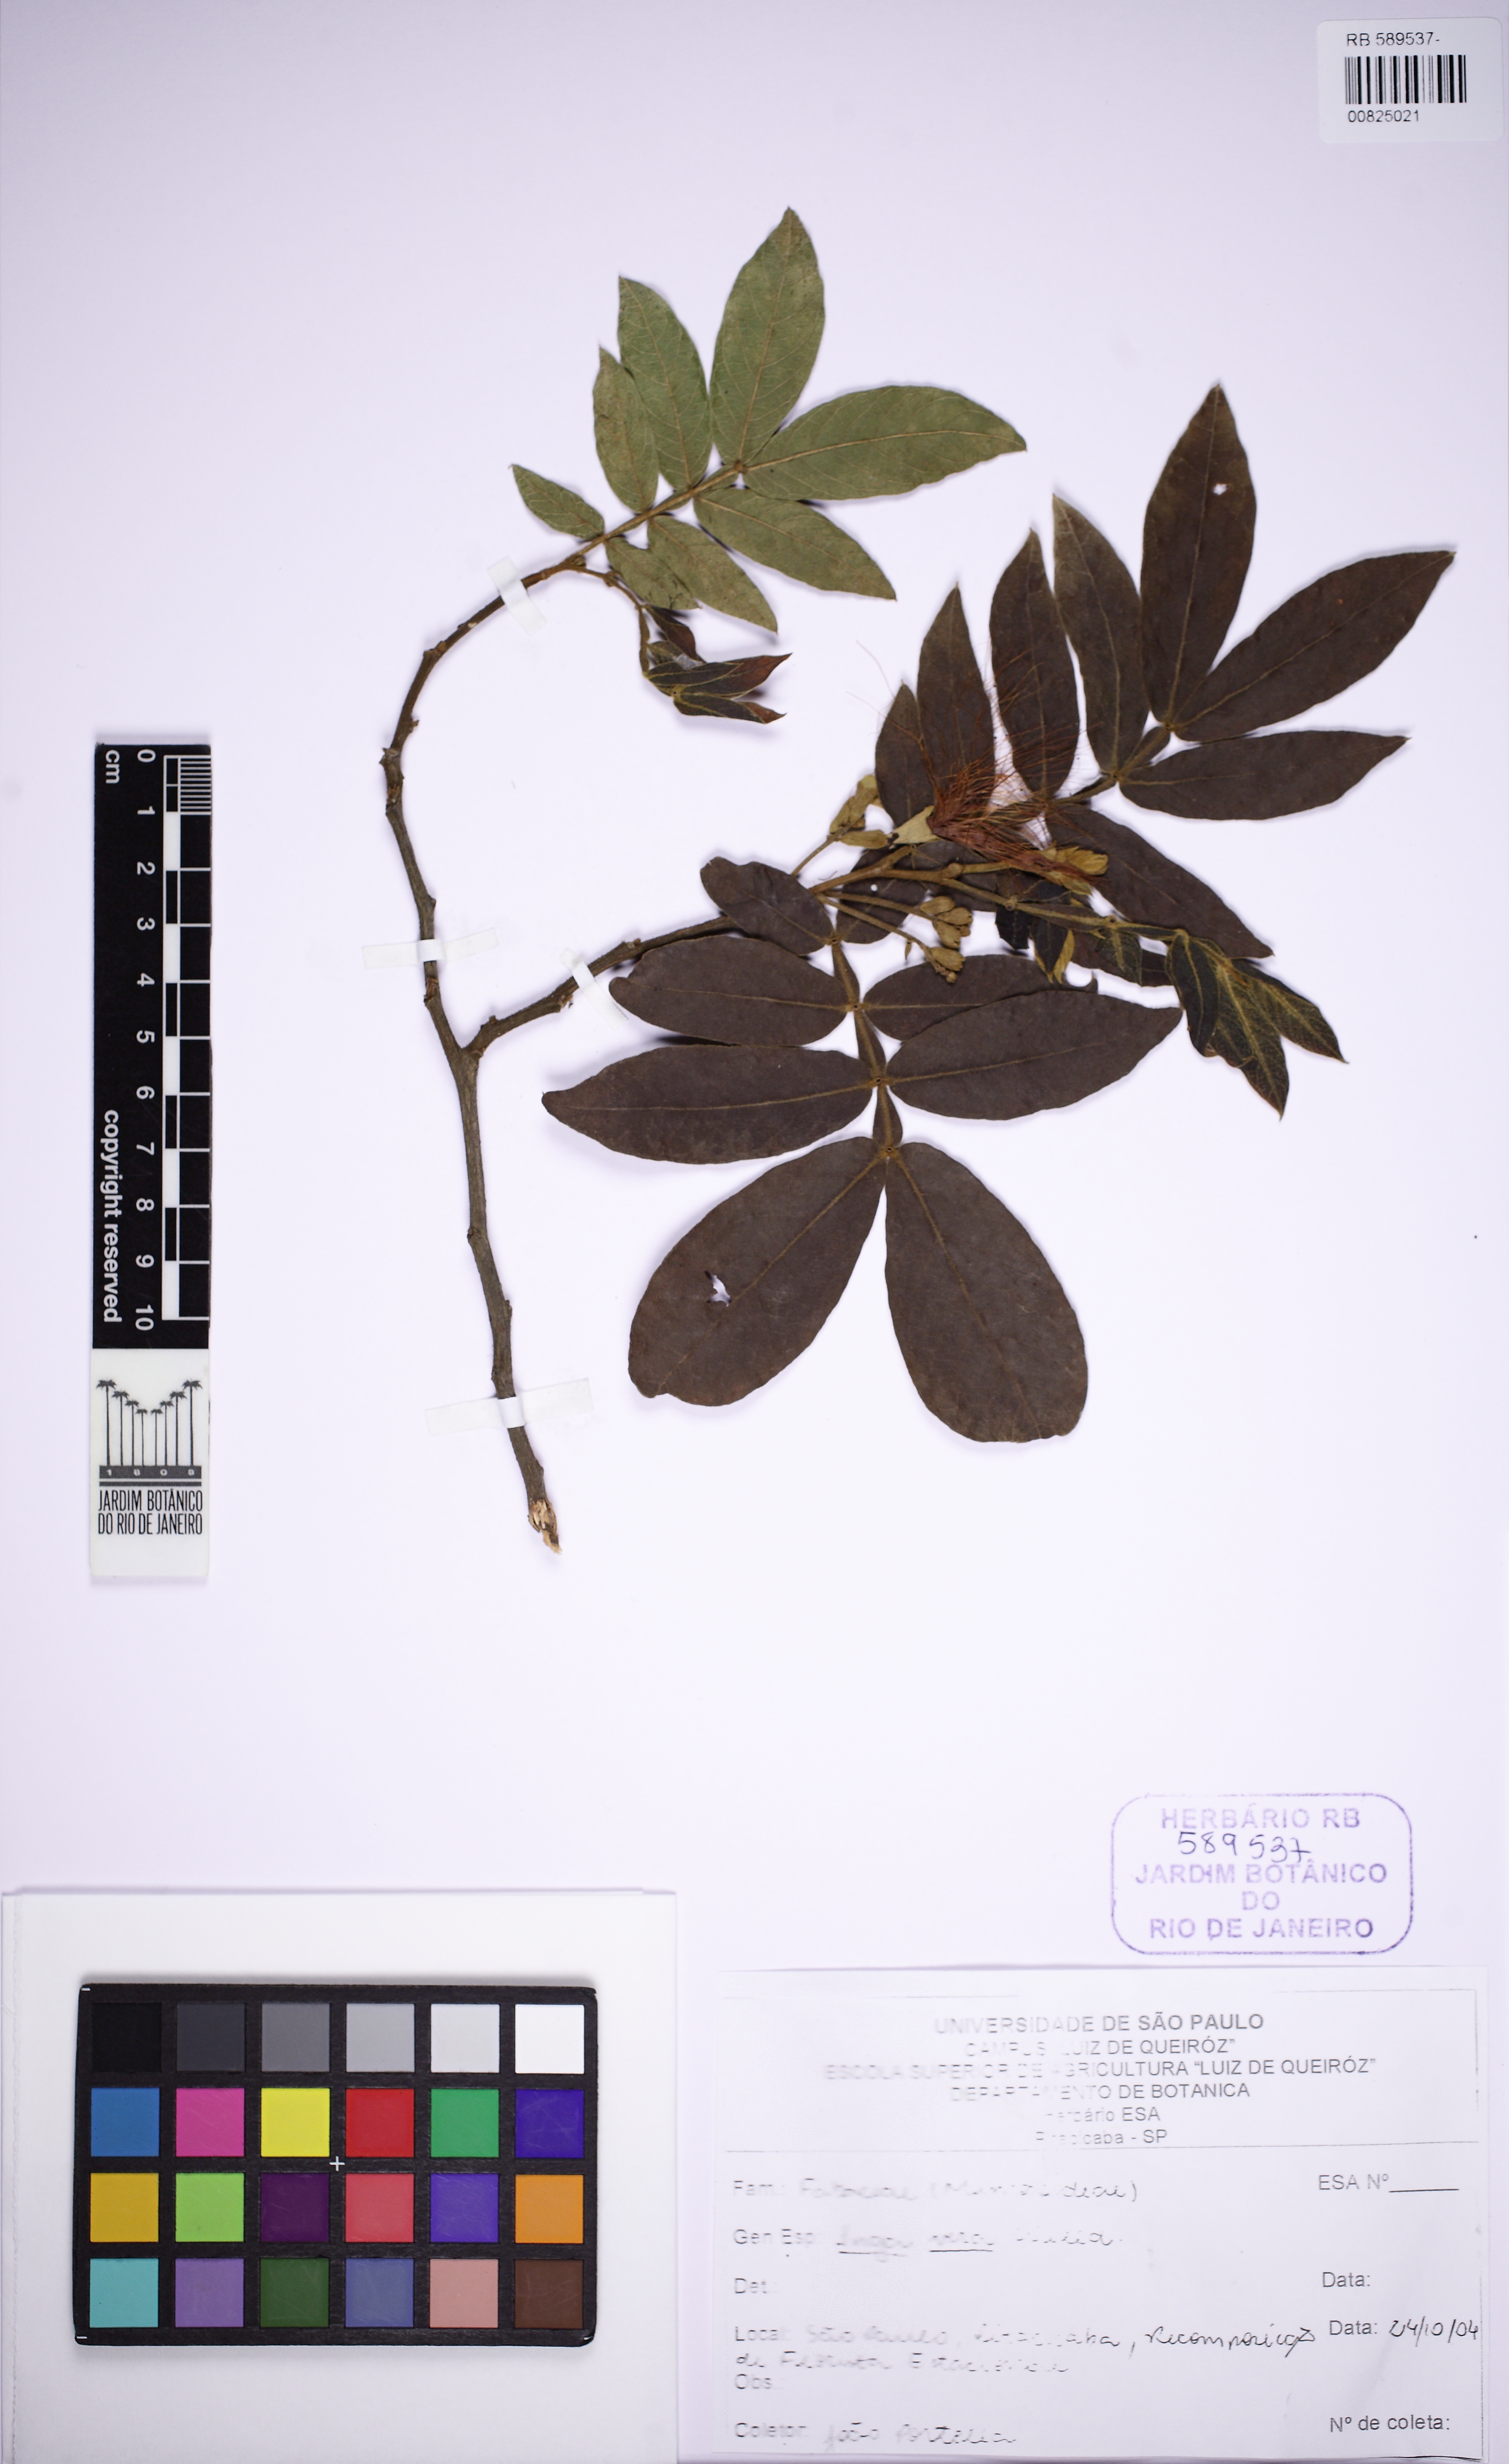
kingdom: Plantae
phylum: Tracheophyta
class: Magnoliopsida
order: Fabales
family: Fabaceae
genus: Inga
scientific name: Inga vera
